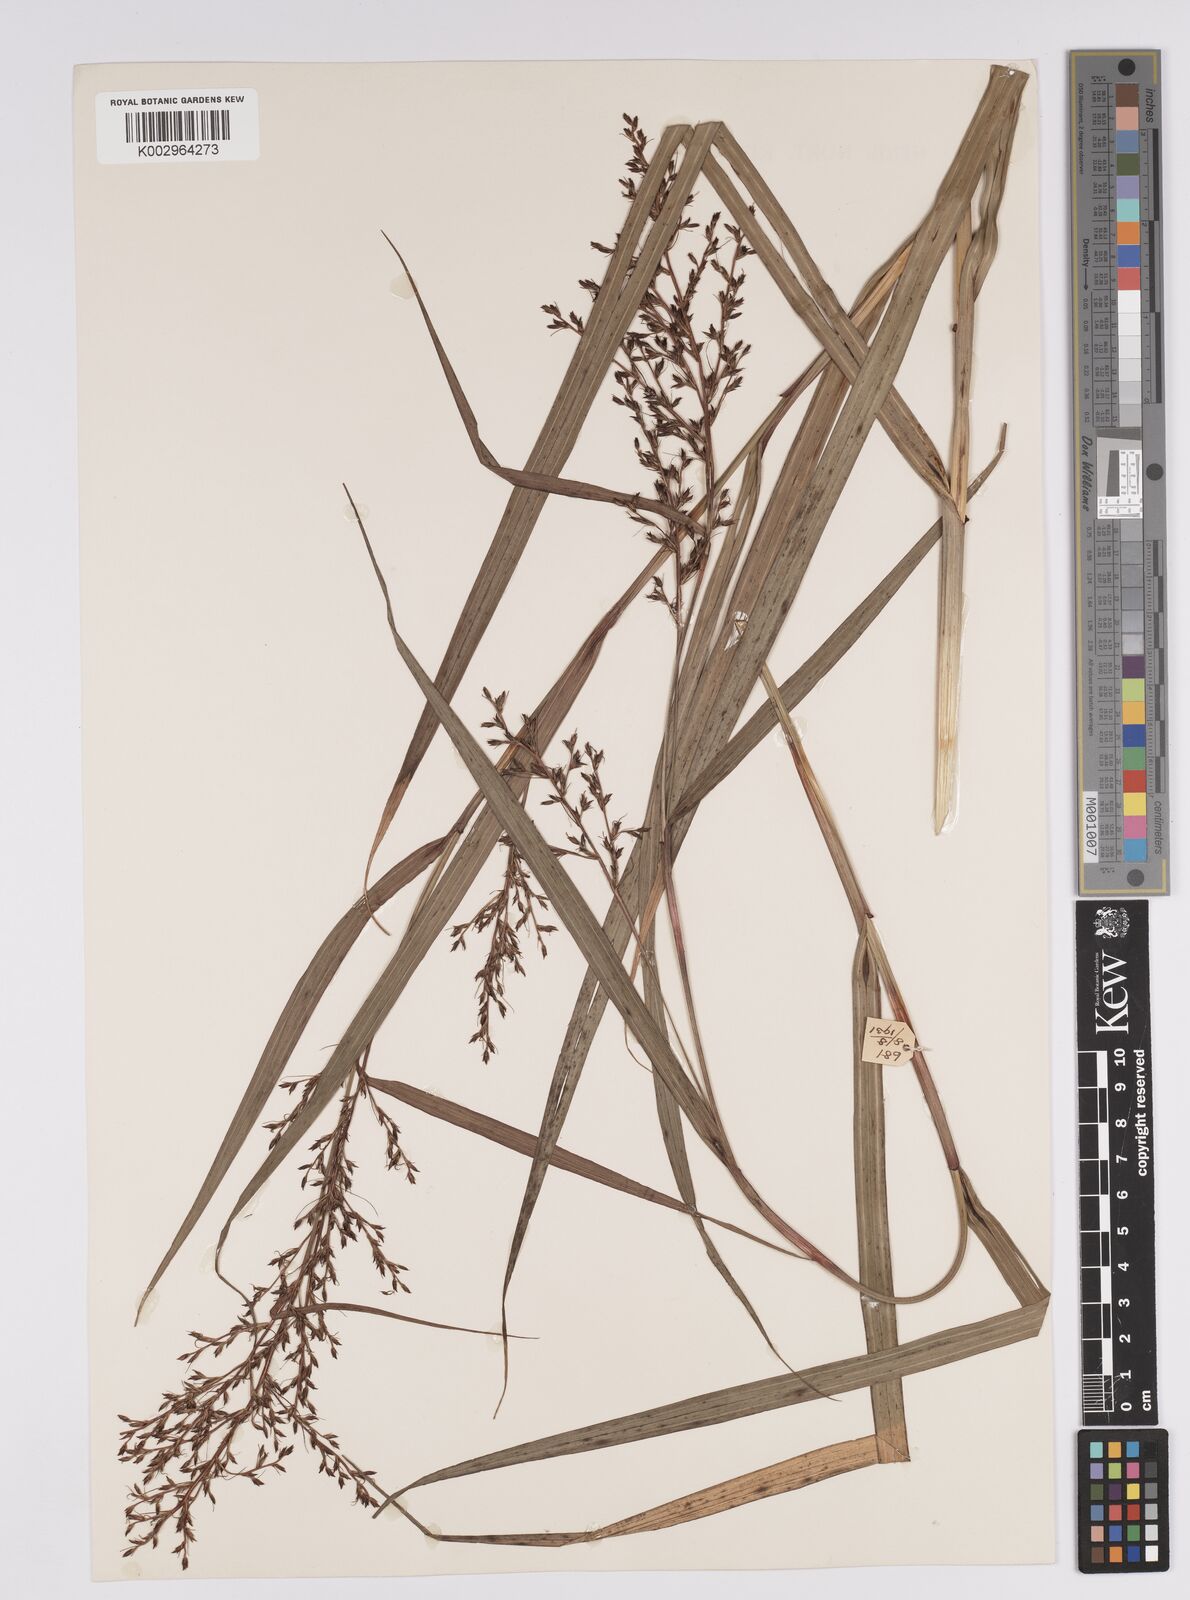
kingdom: Plantae
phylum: Tracheophyta
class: Liliopsida
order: Poales
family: Cyperaceae
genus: Scleria
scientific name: Scleria
